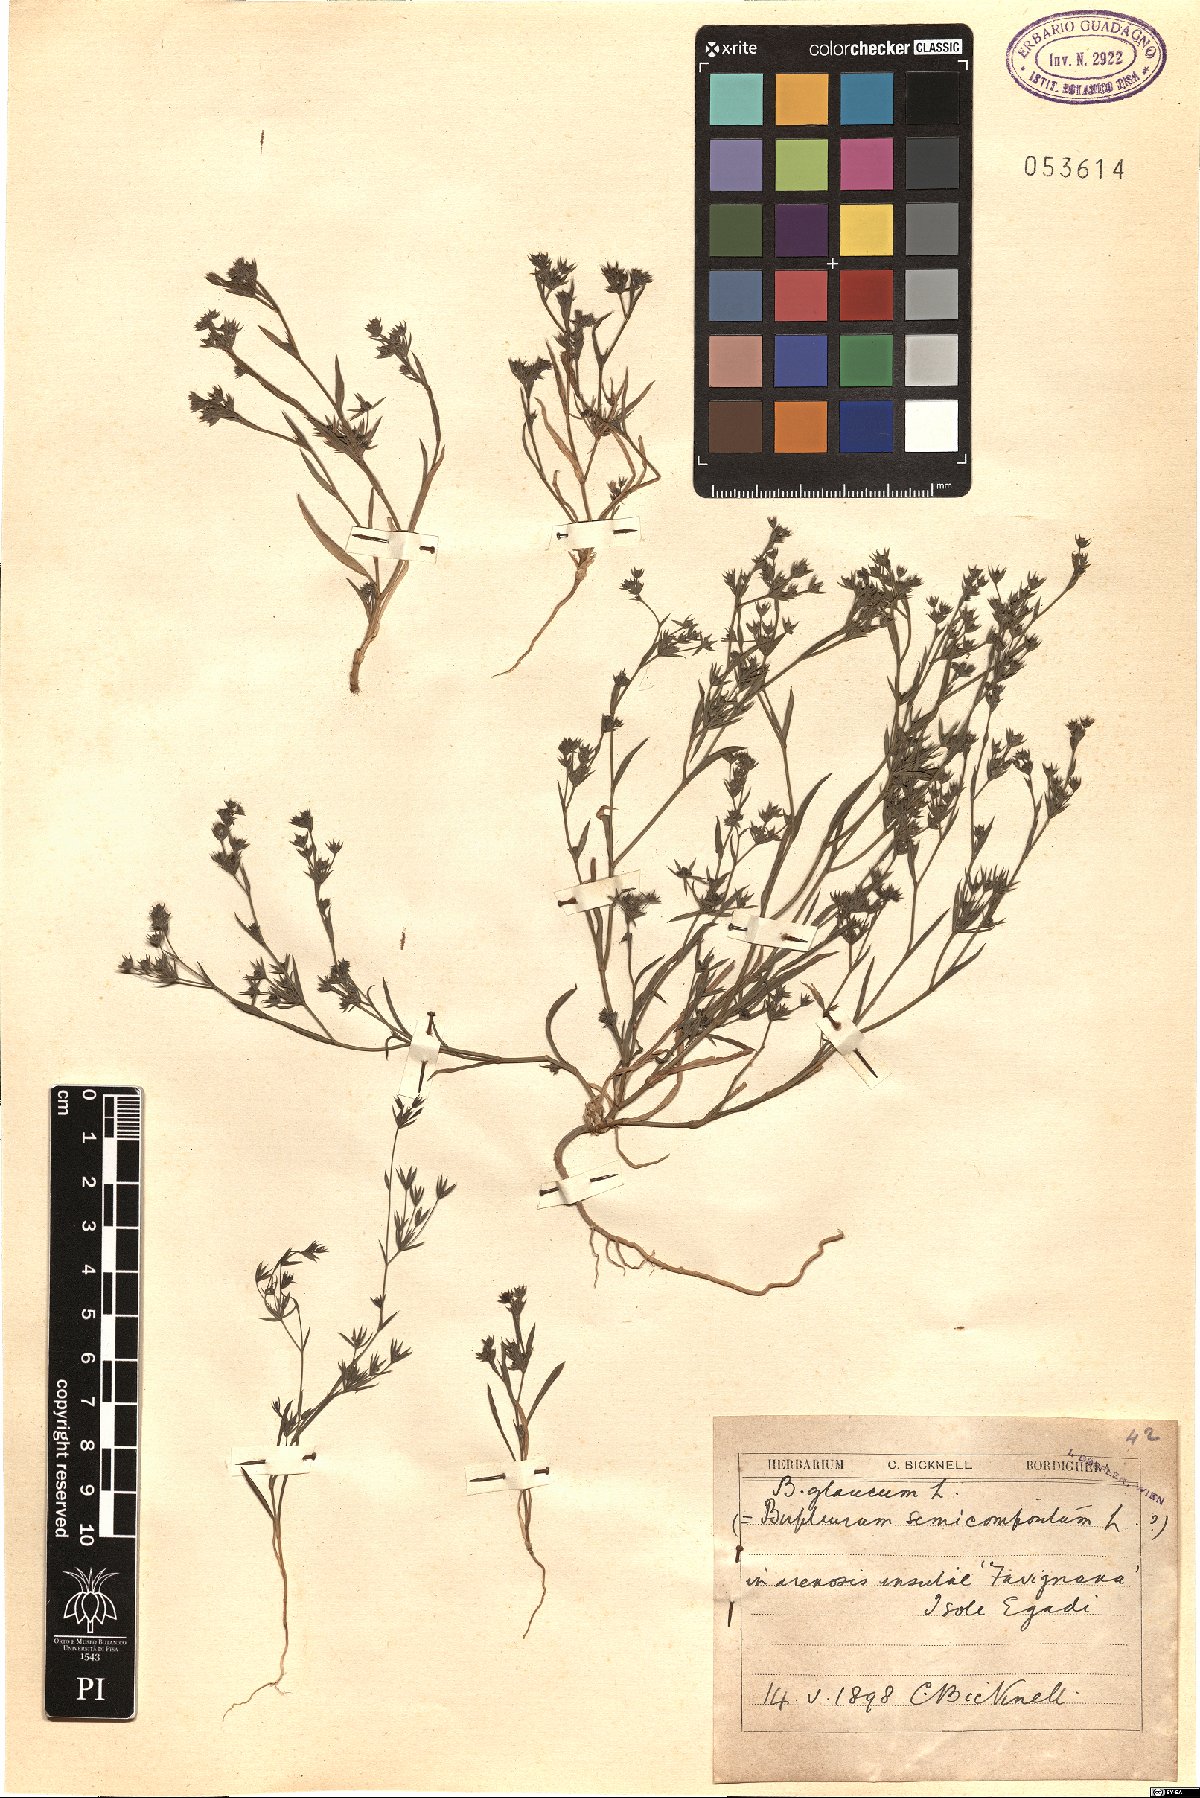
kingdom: Plantae
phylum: Tracheophyta
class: Magnoliopsida
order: Apiales
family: Apiaceae
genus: Bupleurum
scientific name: Bupleurum semicompositum
